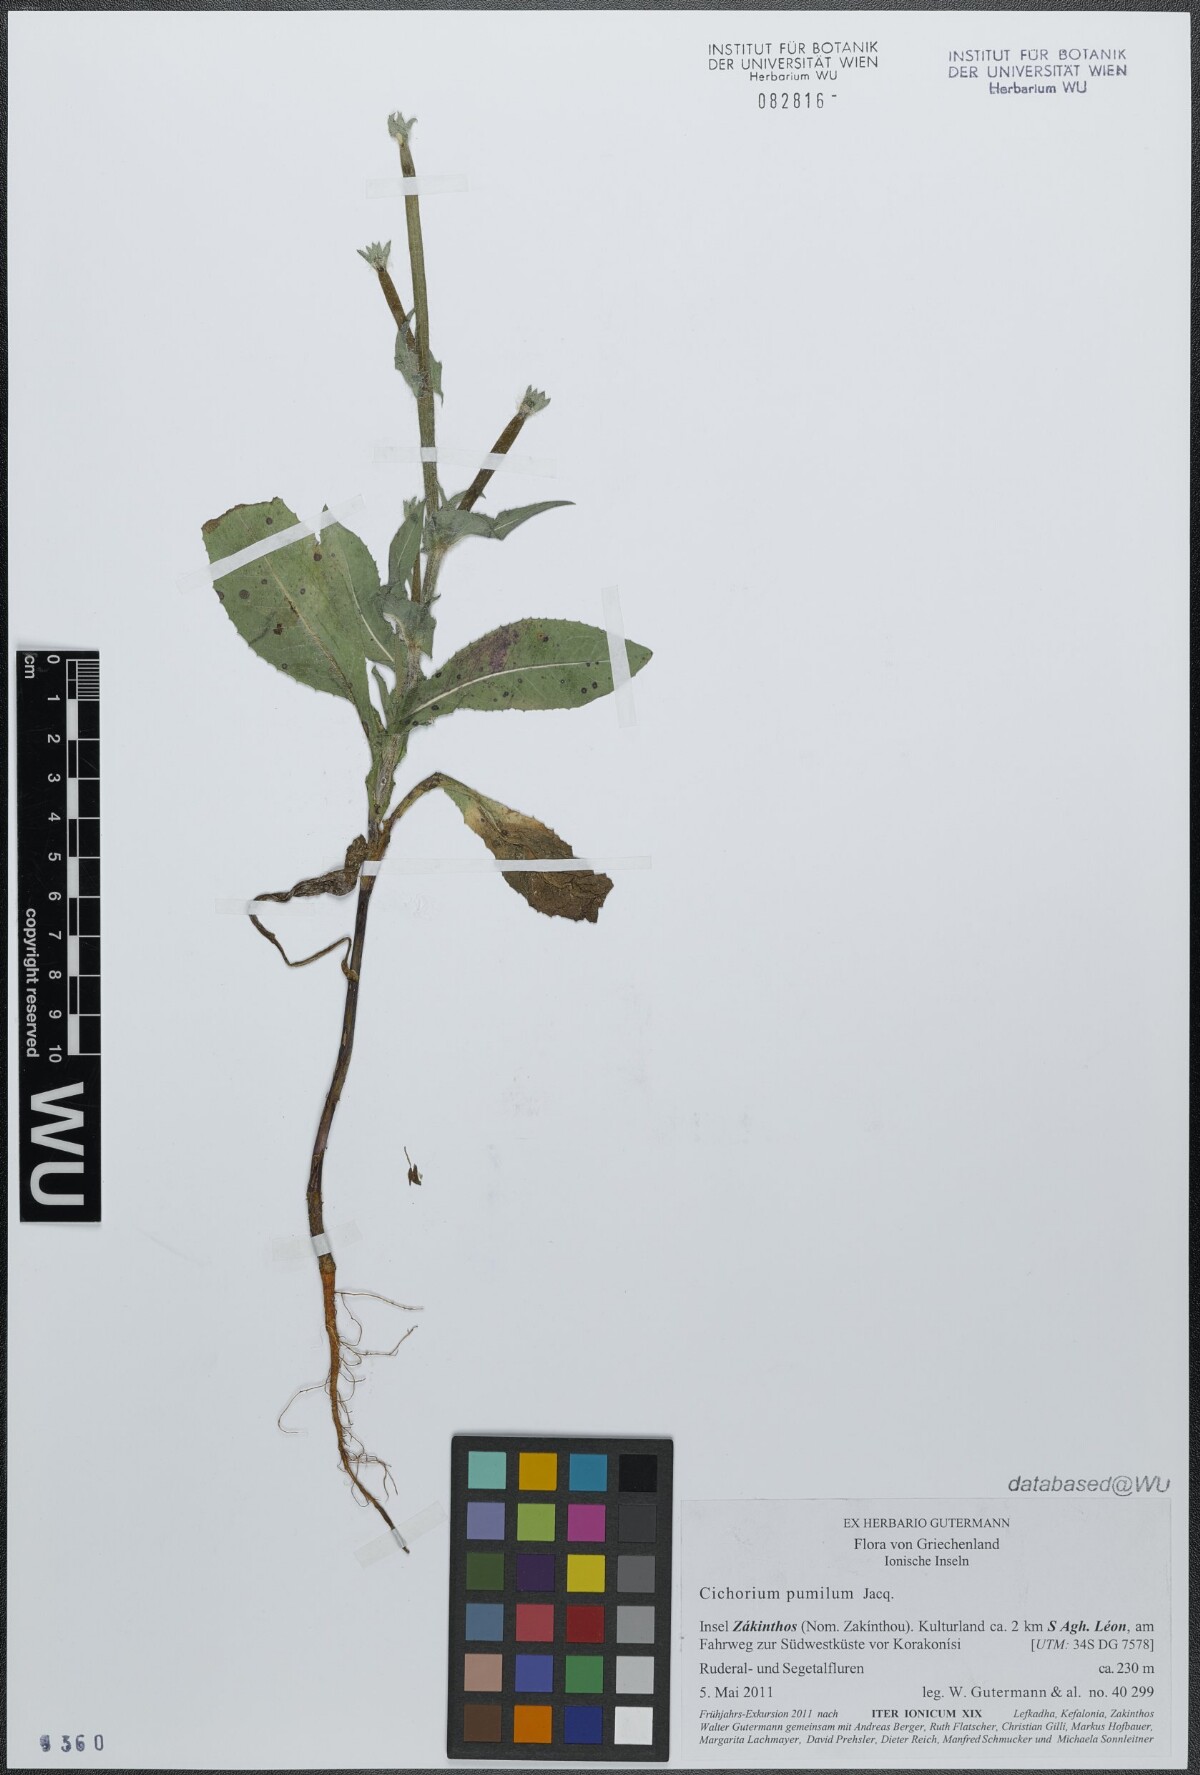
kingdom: Plantae
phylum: Tracheophyta
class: Magnoliopsida
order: Asterales
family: Asteraceae
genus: Cichorium
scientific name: Cichorium pumilum
